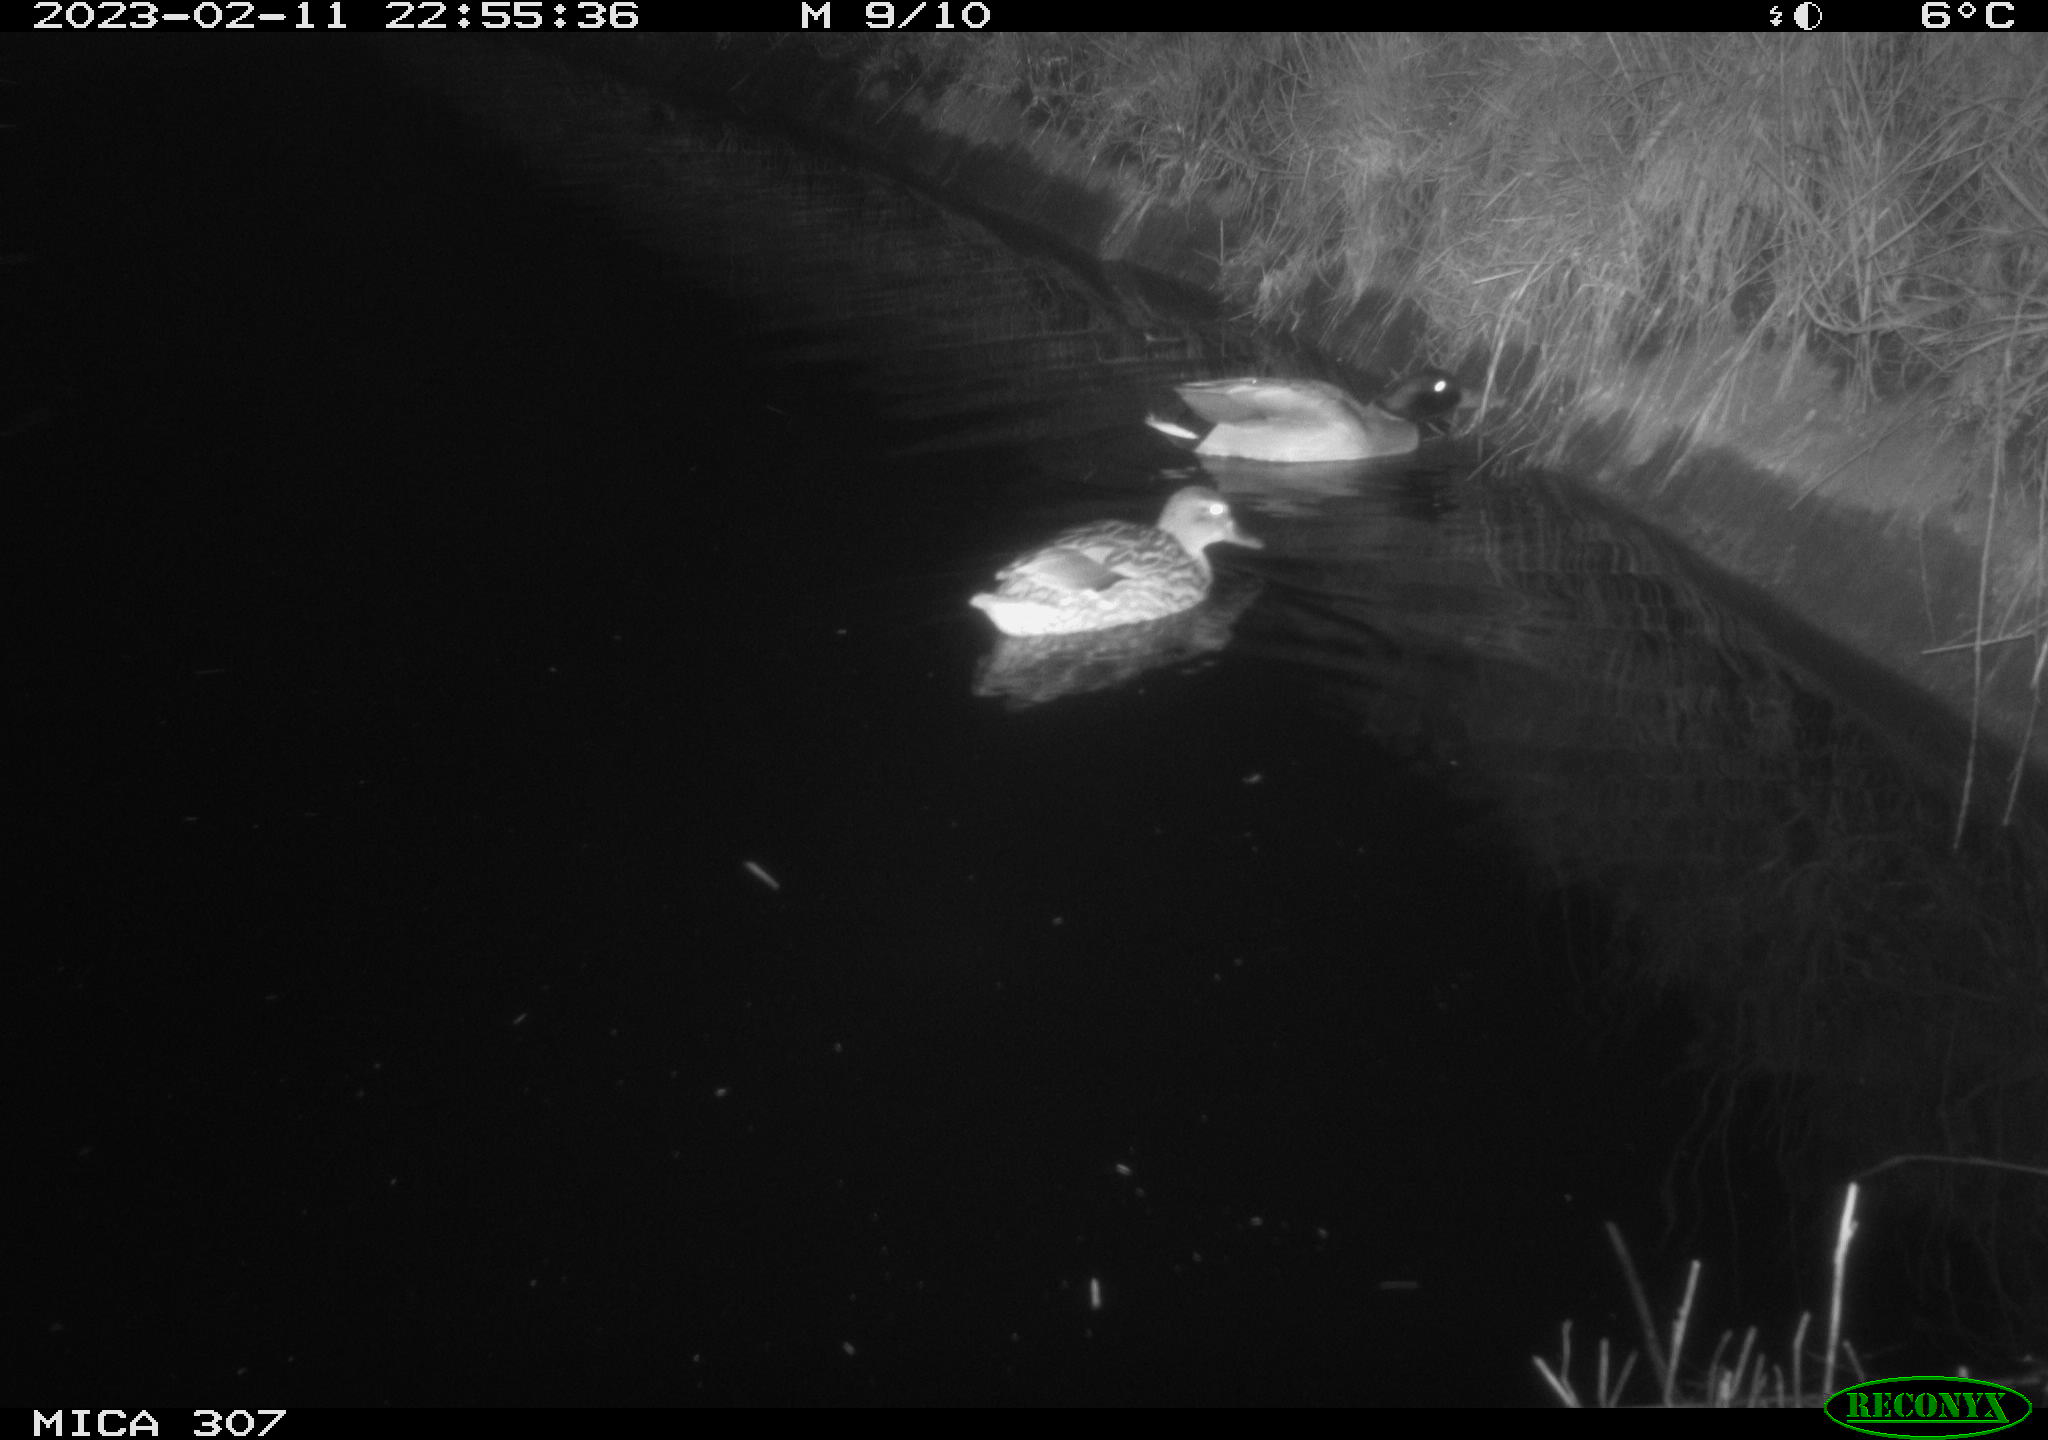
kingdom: Animalia
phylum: Chordata
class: Aves
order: Anseriformes
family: Anatidae
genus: Anas
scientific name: Anas
